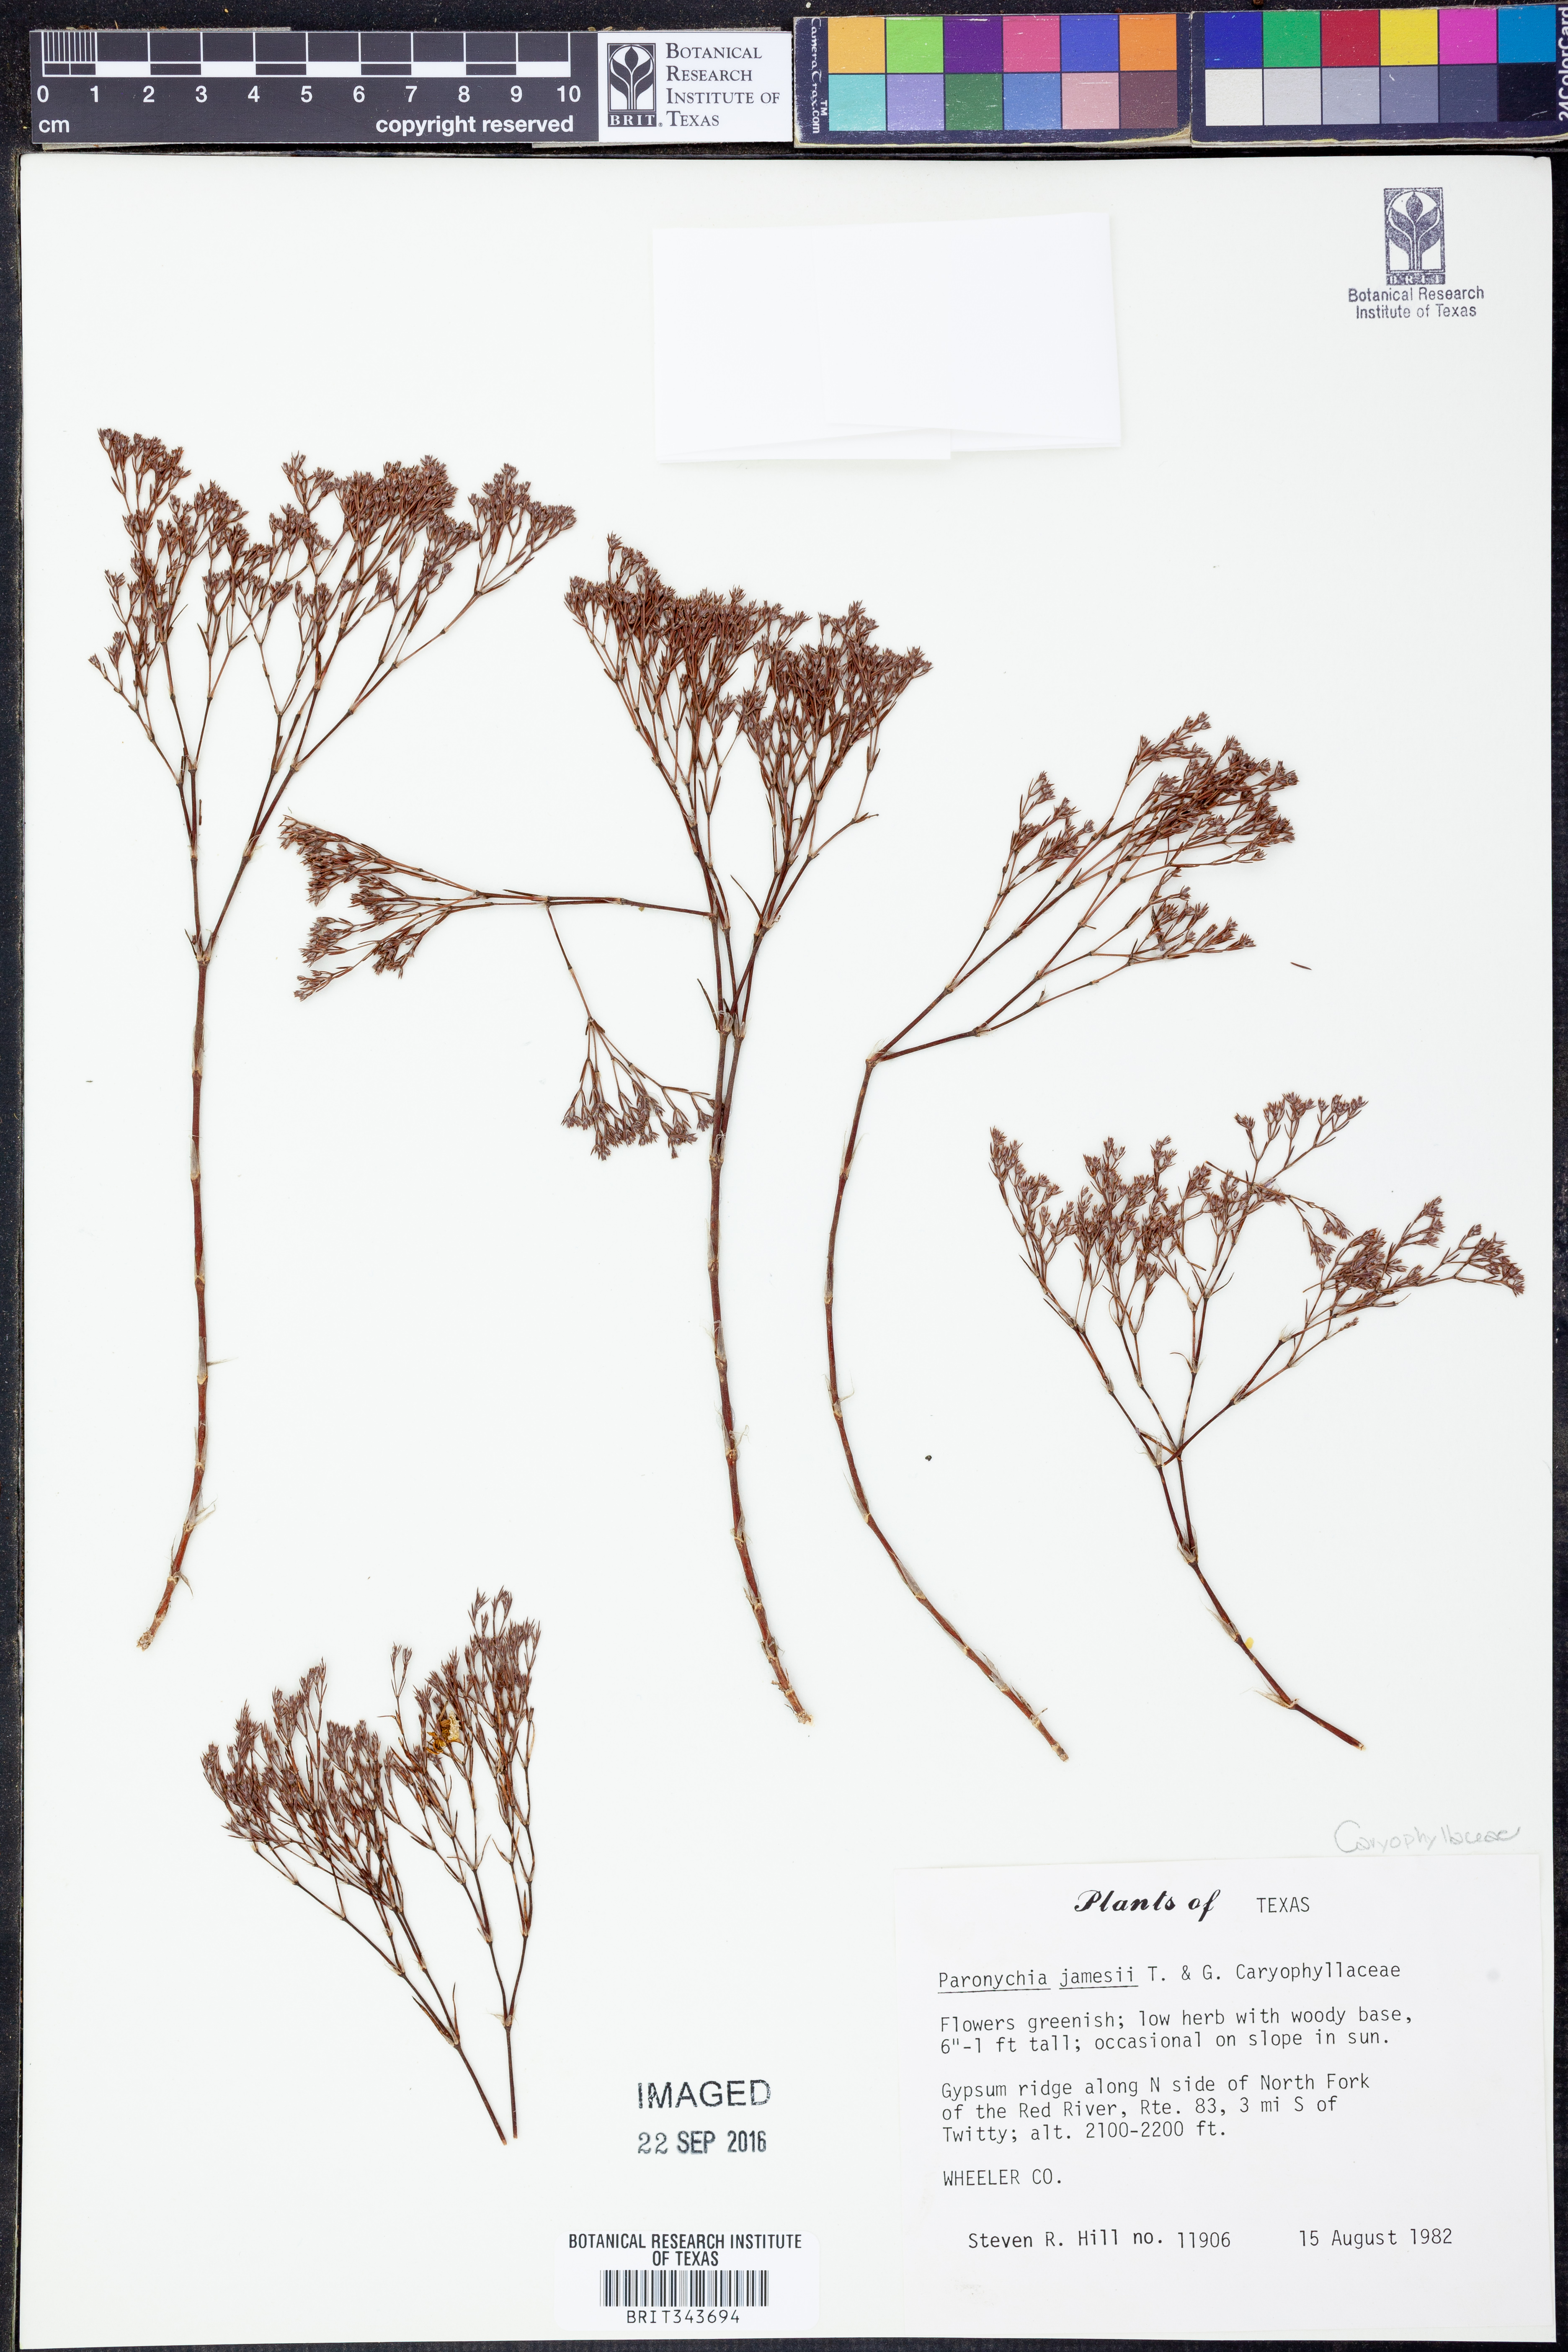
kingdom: Plantae
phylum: Tracheophyta
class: Magnoliopsida
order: Caryophyllales
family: Caryophyllaceae
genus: Paronychia
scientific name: Paronychia jamesii
